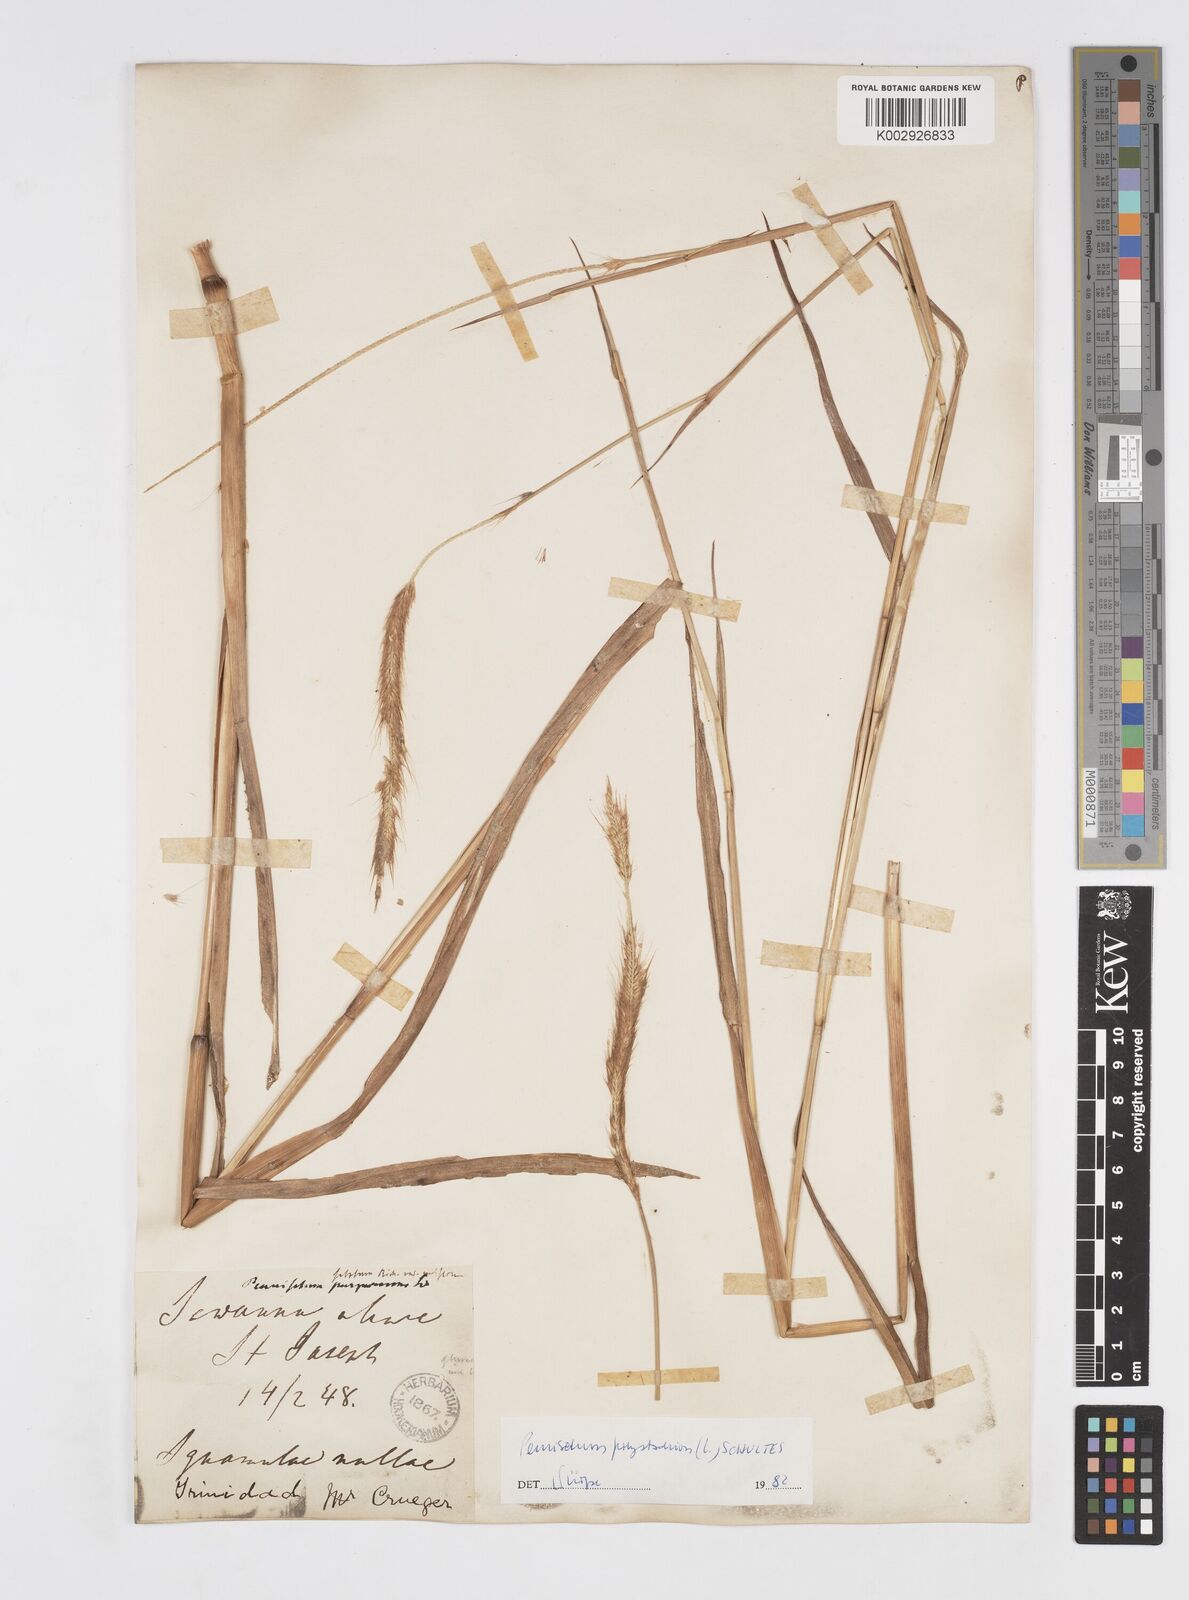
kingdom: Plantae
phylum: Tracheophyta
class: Liliopsida
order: Poales
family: Poaceae
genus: Cenchrus
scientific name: Cenchrus setosus
